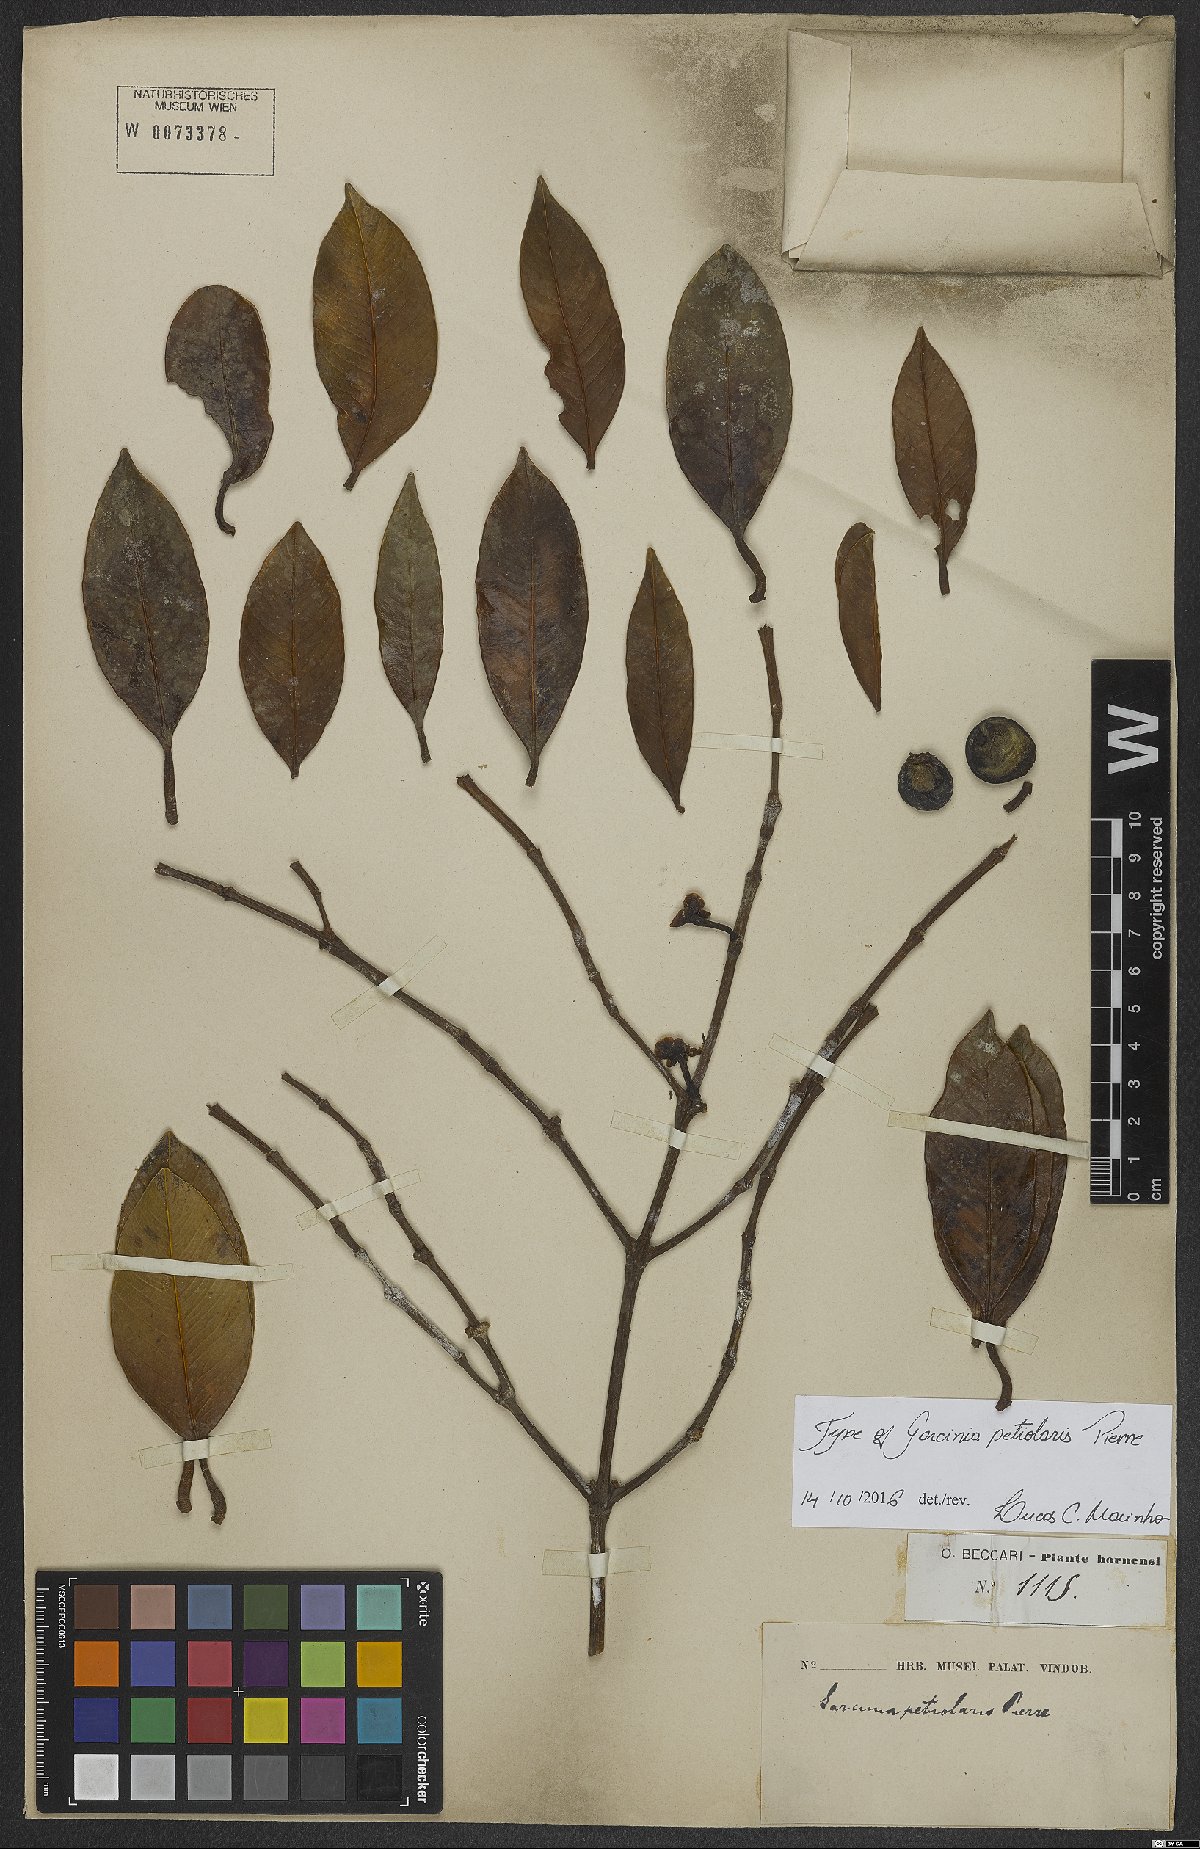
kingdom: Plantae
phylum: Tracheophyta
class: Magnoliopsida
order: Malpighiales
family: Clusiaceae
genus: Garcinia
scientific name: Garcinia petiolaris
